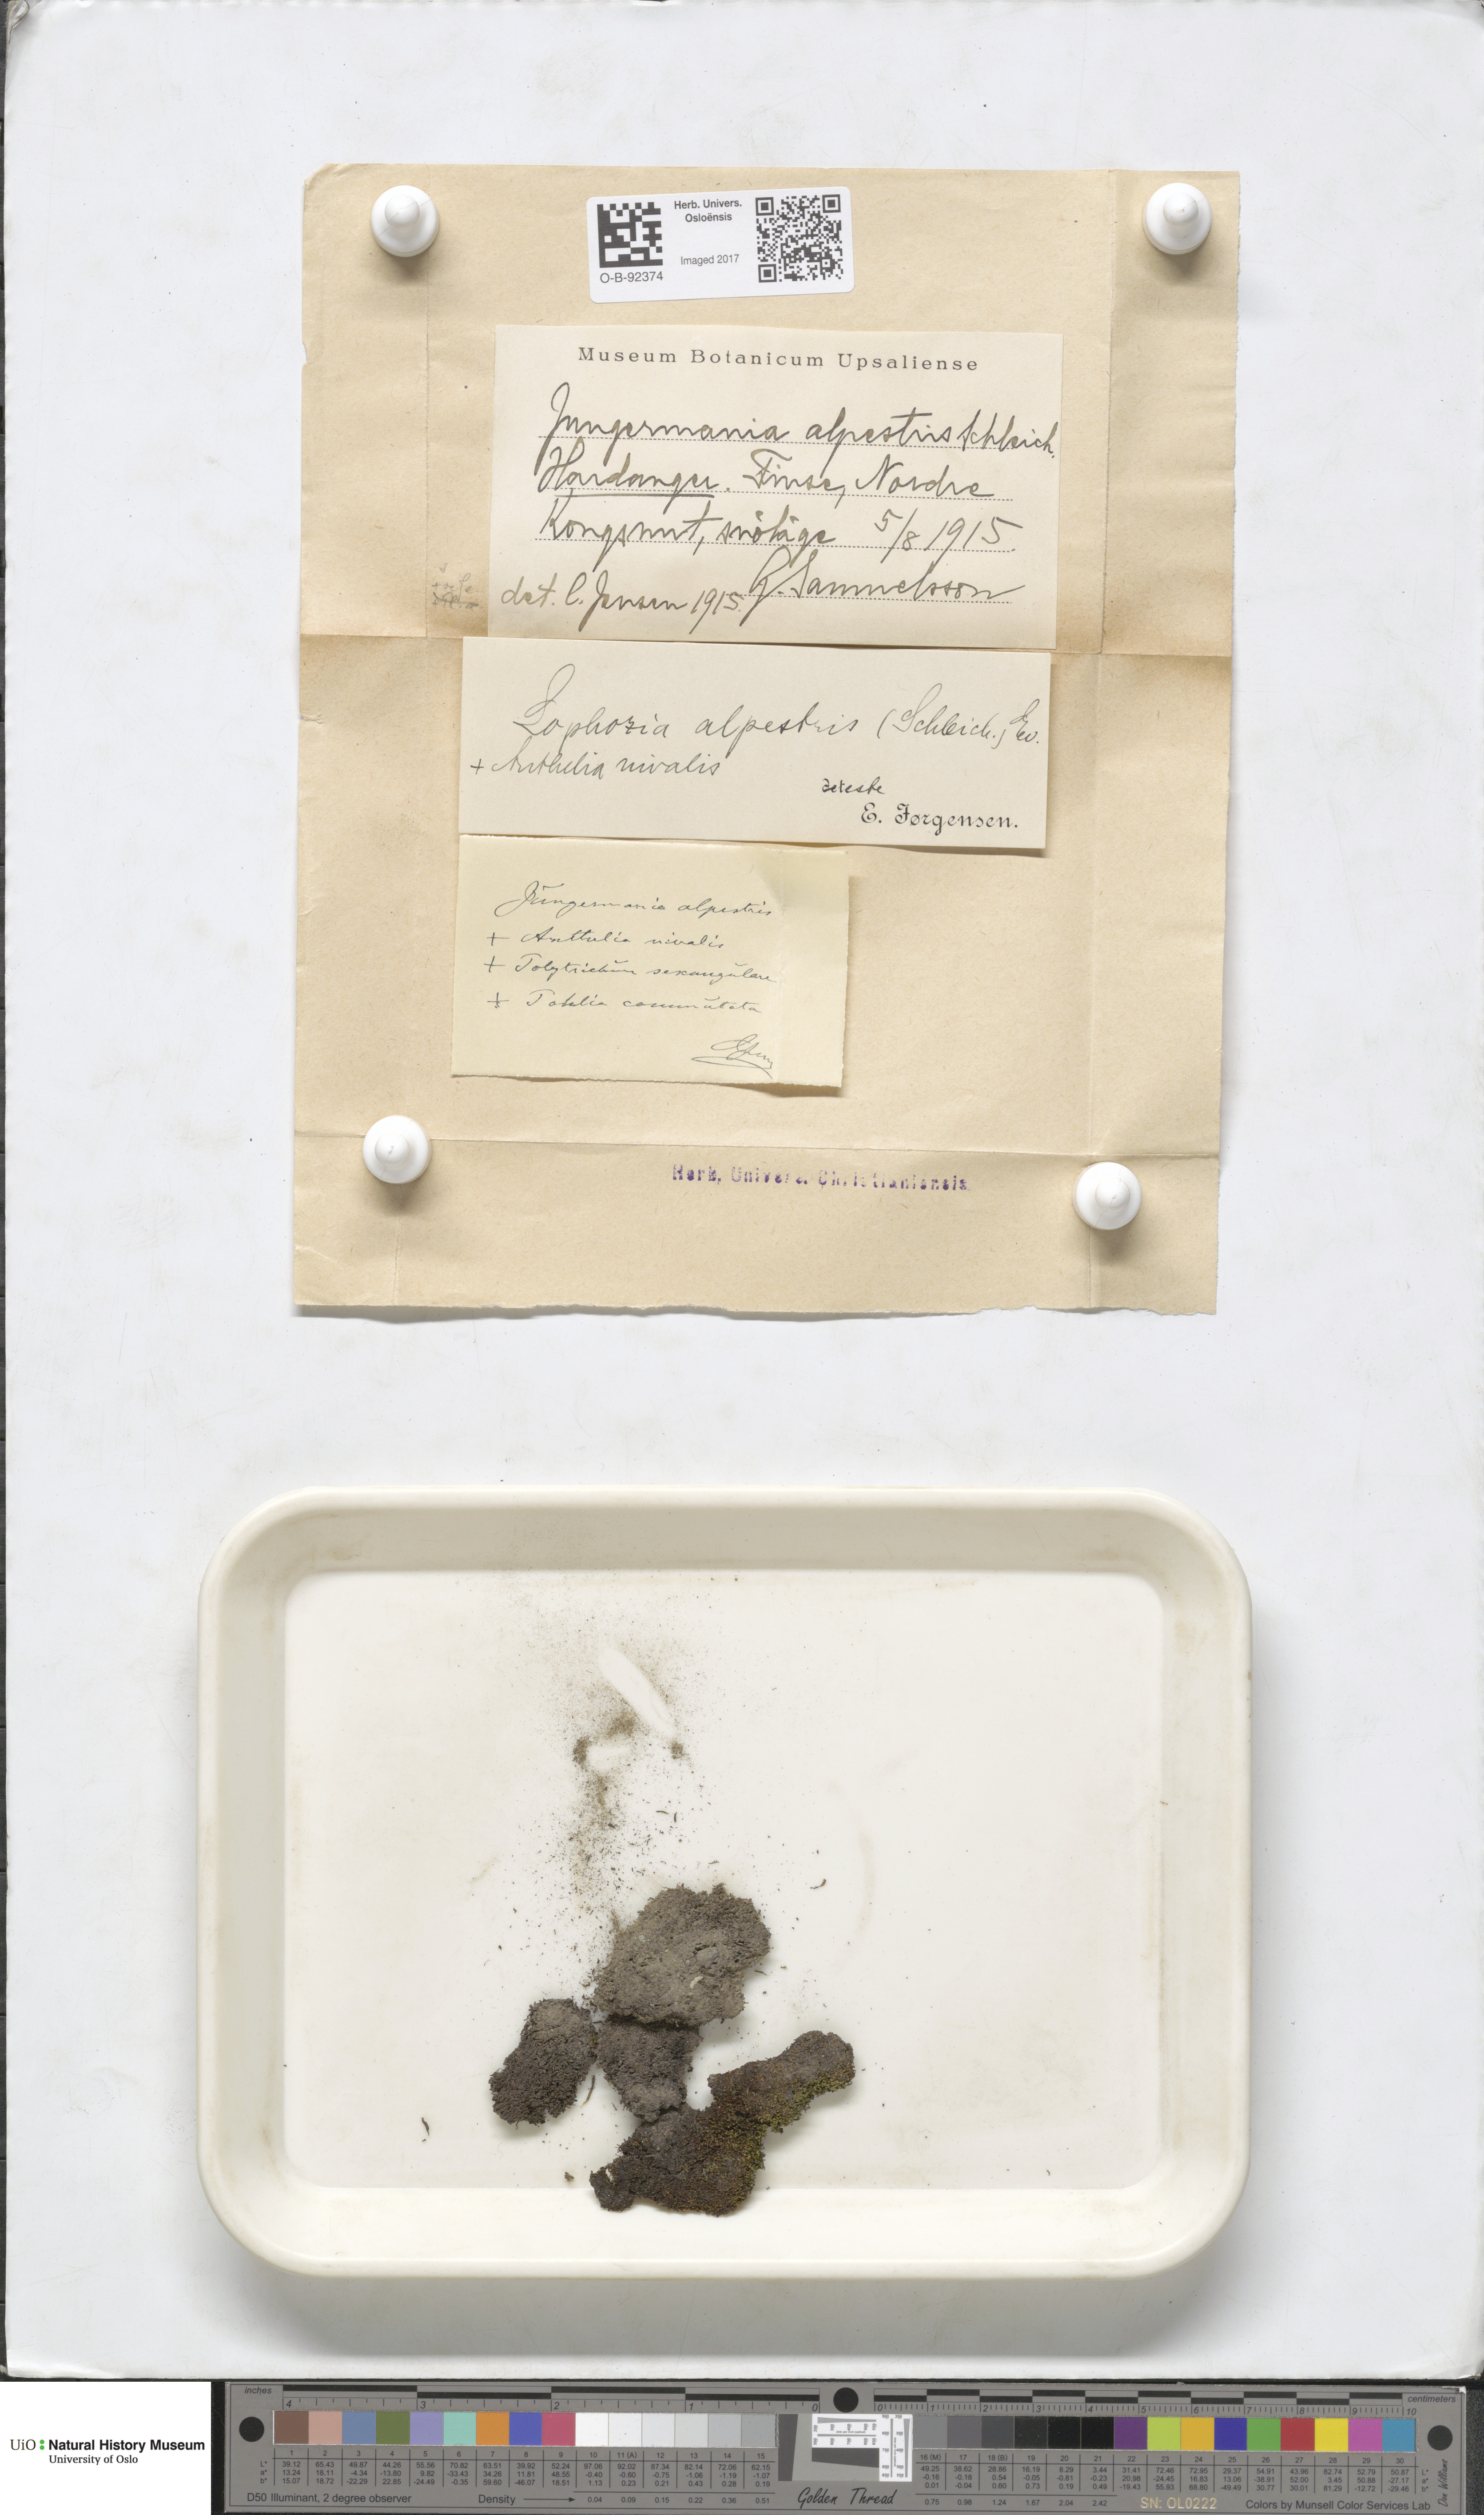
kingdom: Plantae
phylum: Marchantiophyta
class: Jungermanniopsida
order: Jungermanniales
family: Anastrophyllaceae
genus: Barbilophozia
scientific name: Barbilophozia sudetica
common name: Hill notchwort
